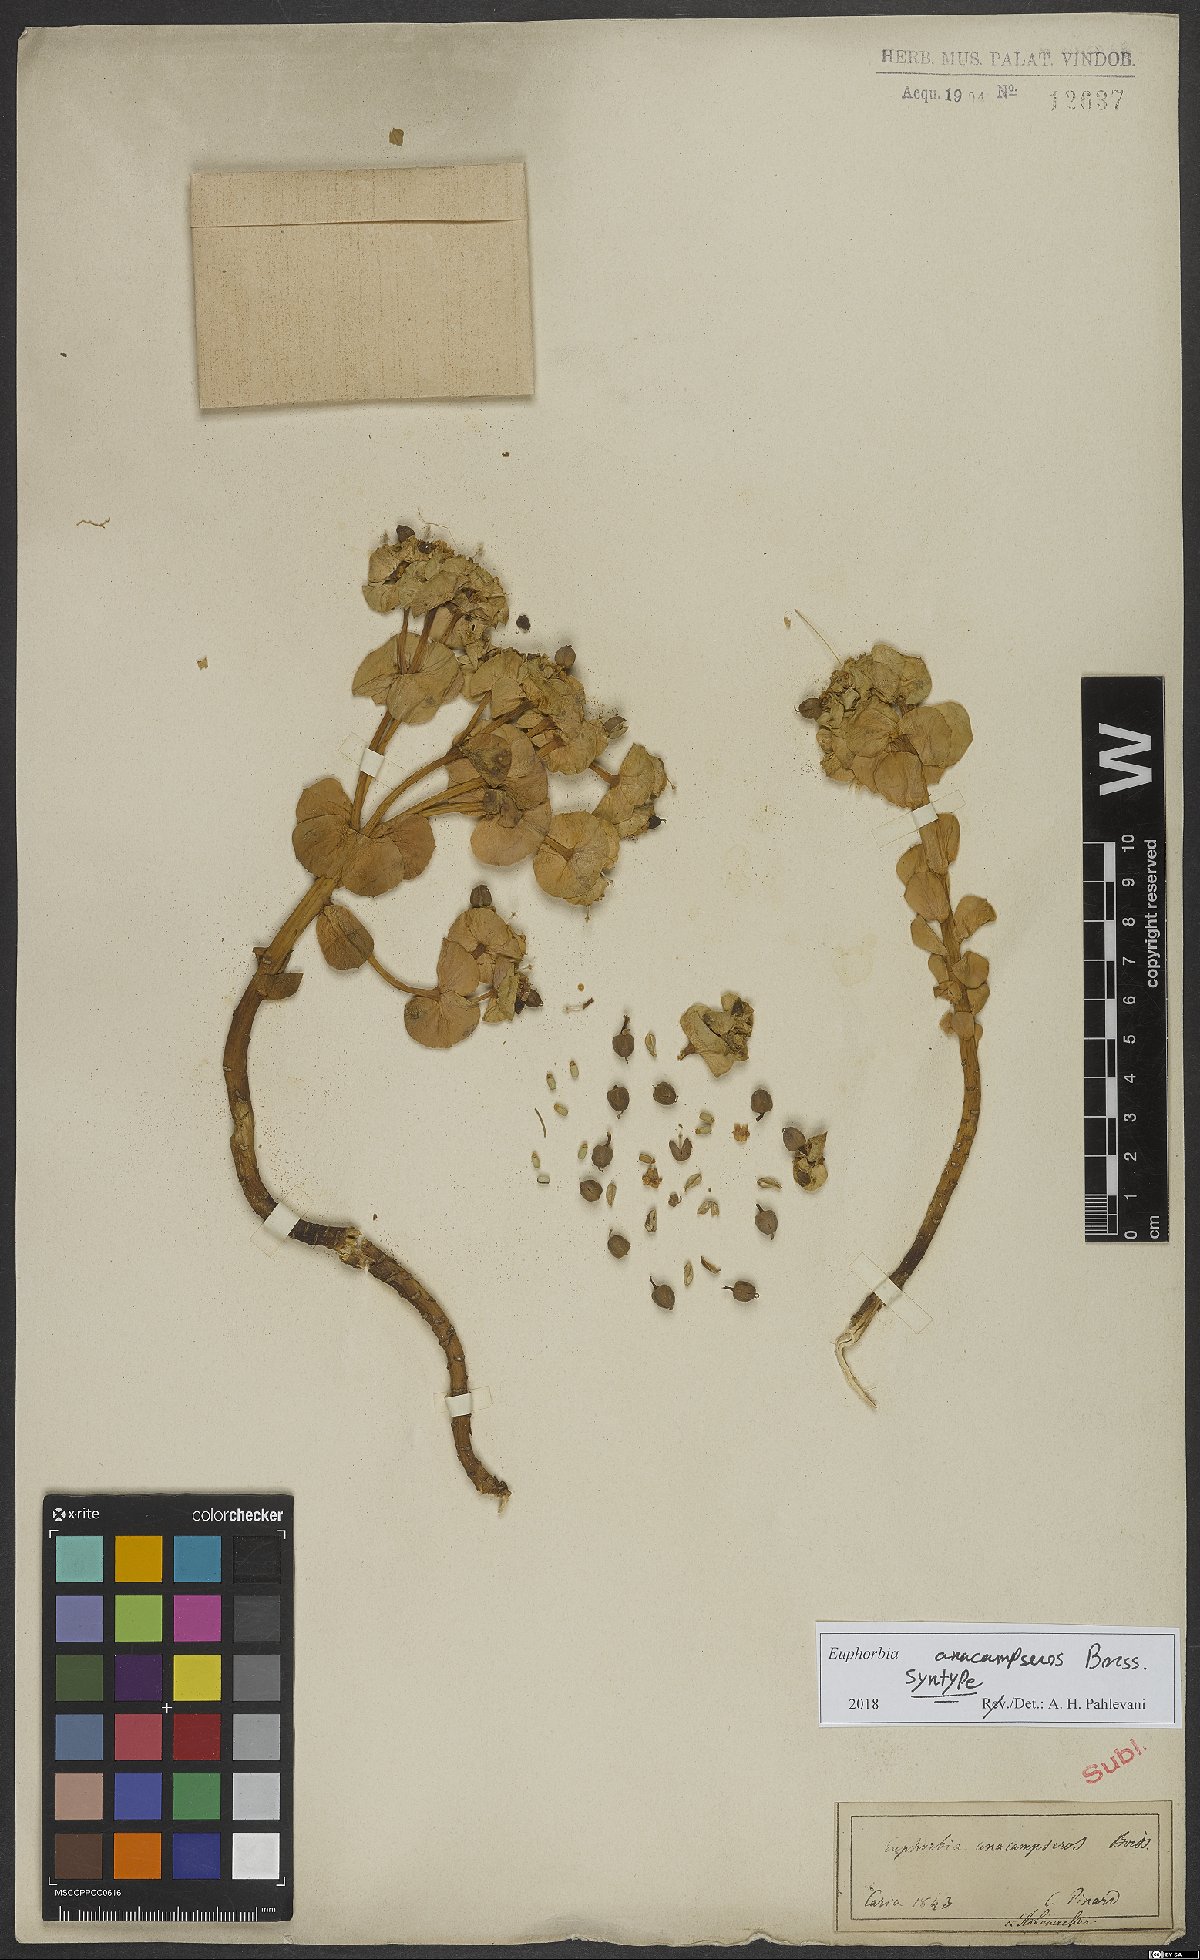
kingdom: Plantae
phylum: Tracheophyta
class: Magnoliopsida
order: Malpighiales
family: Euphorbiaceae
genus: Euphorbia
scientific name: Euphorbia anacampseros
